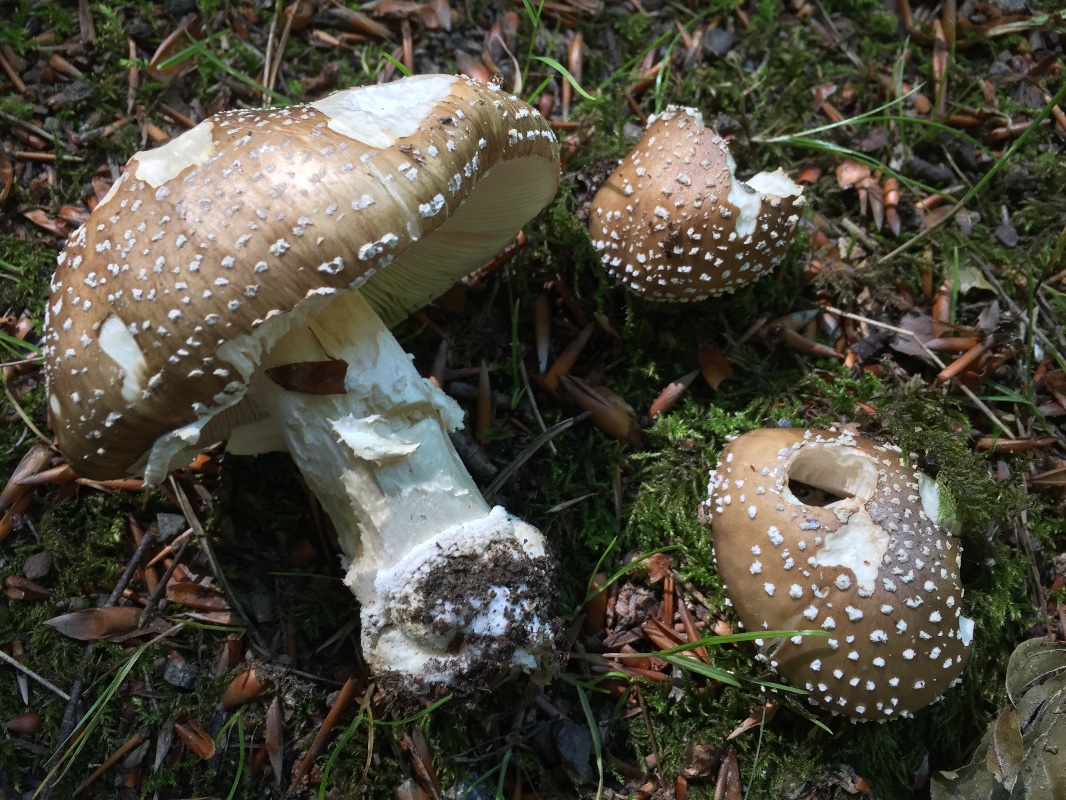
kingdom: Fungi
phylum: Basidiomycota
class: Agaricomycetes
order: Agaricales
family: Amanitaceae
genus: Amanita
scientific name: Amanita pantherina
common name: panter-fluesvamp
